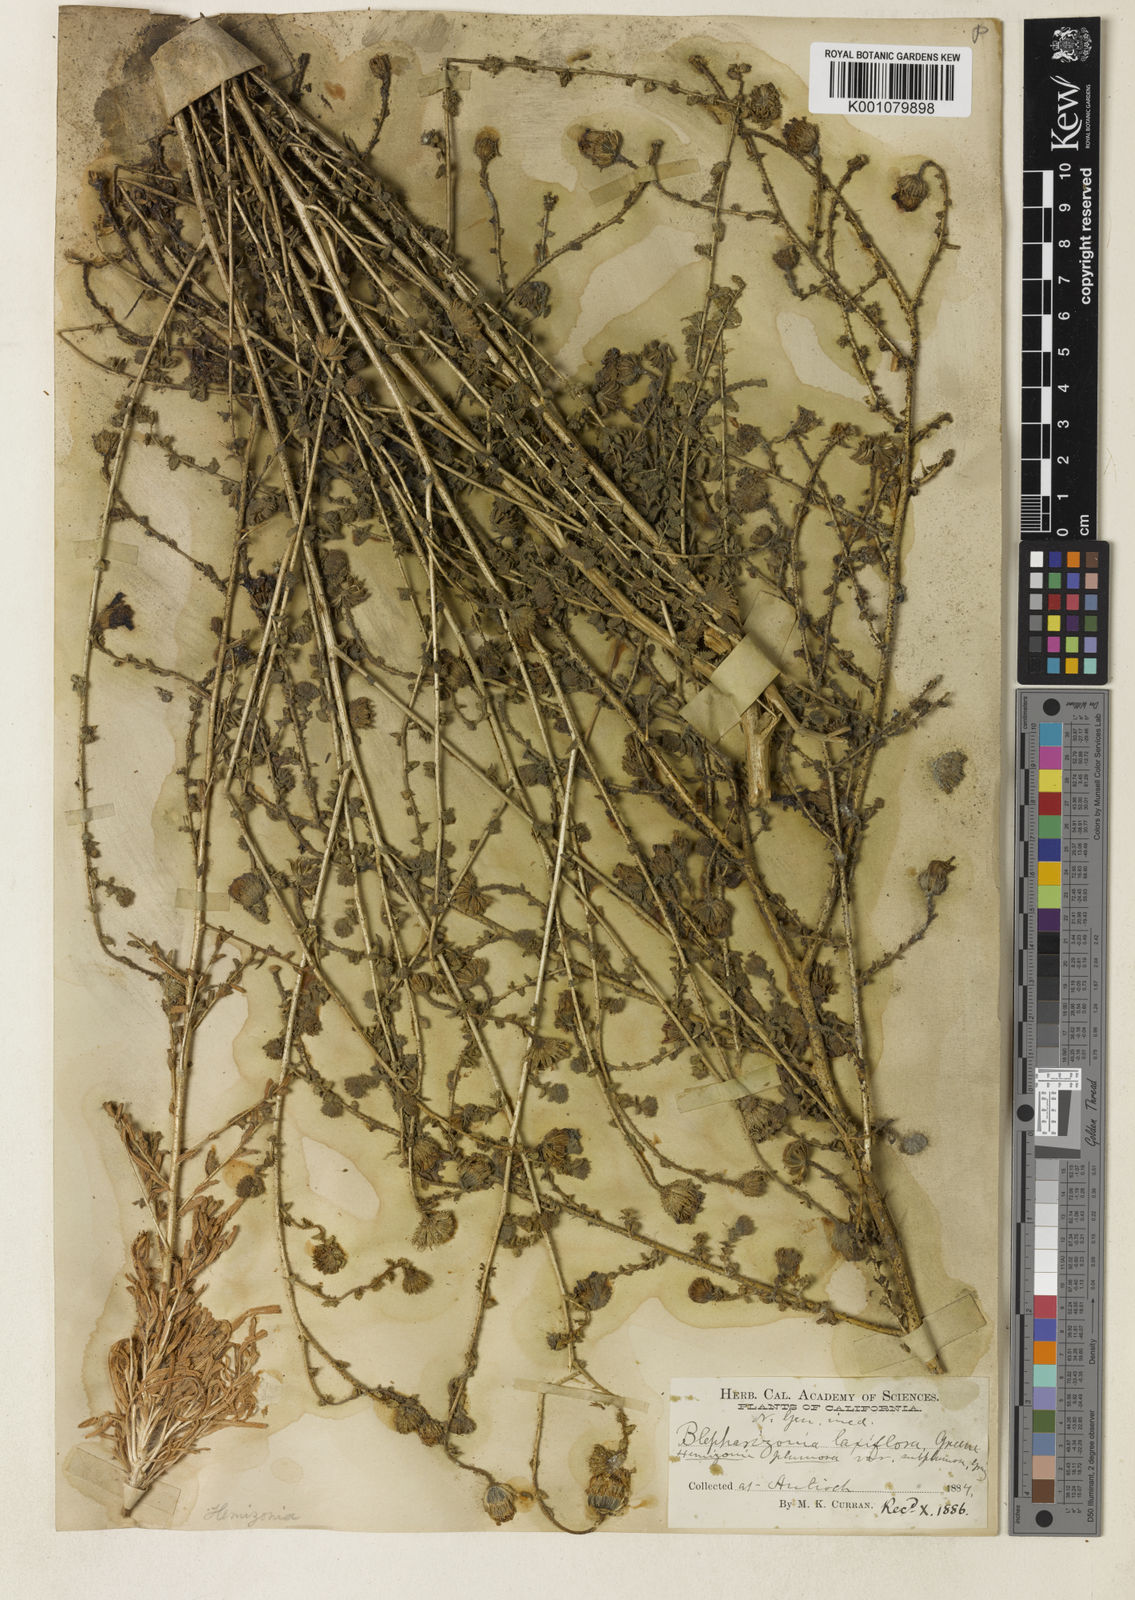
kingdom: Plantae
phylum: Tracheophyta
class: Magnoliopsida
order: Asterales
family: Asteraceae
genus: Blepharizonia
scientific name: Blepharizonia plumosa
